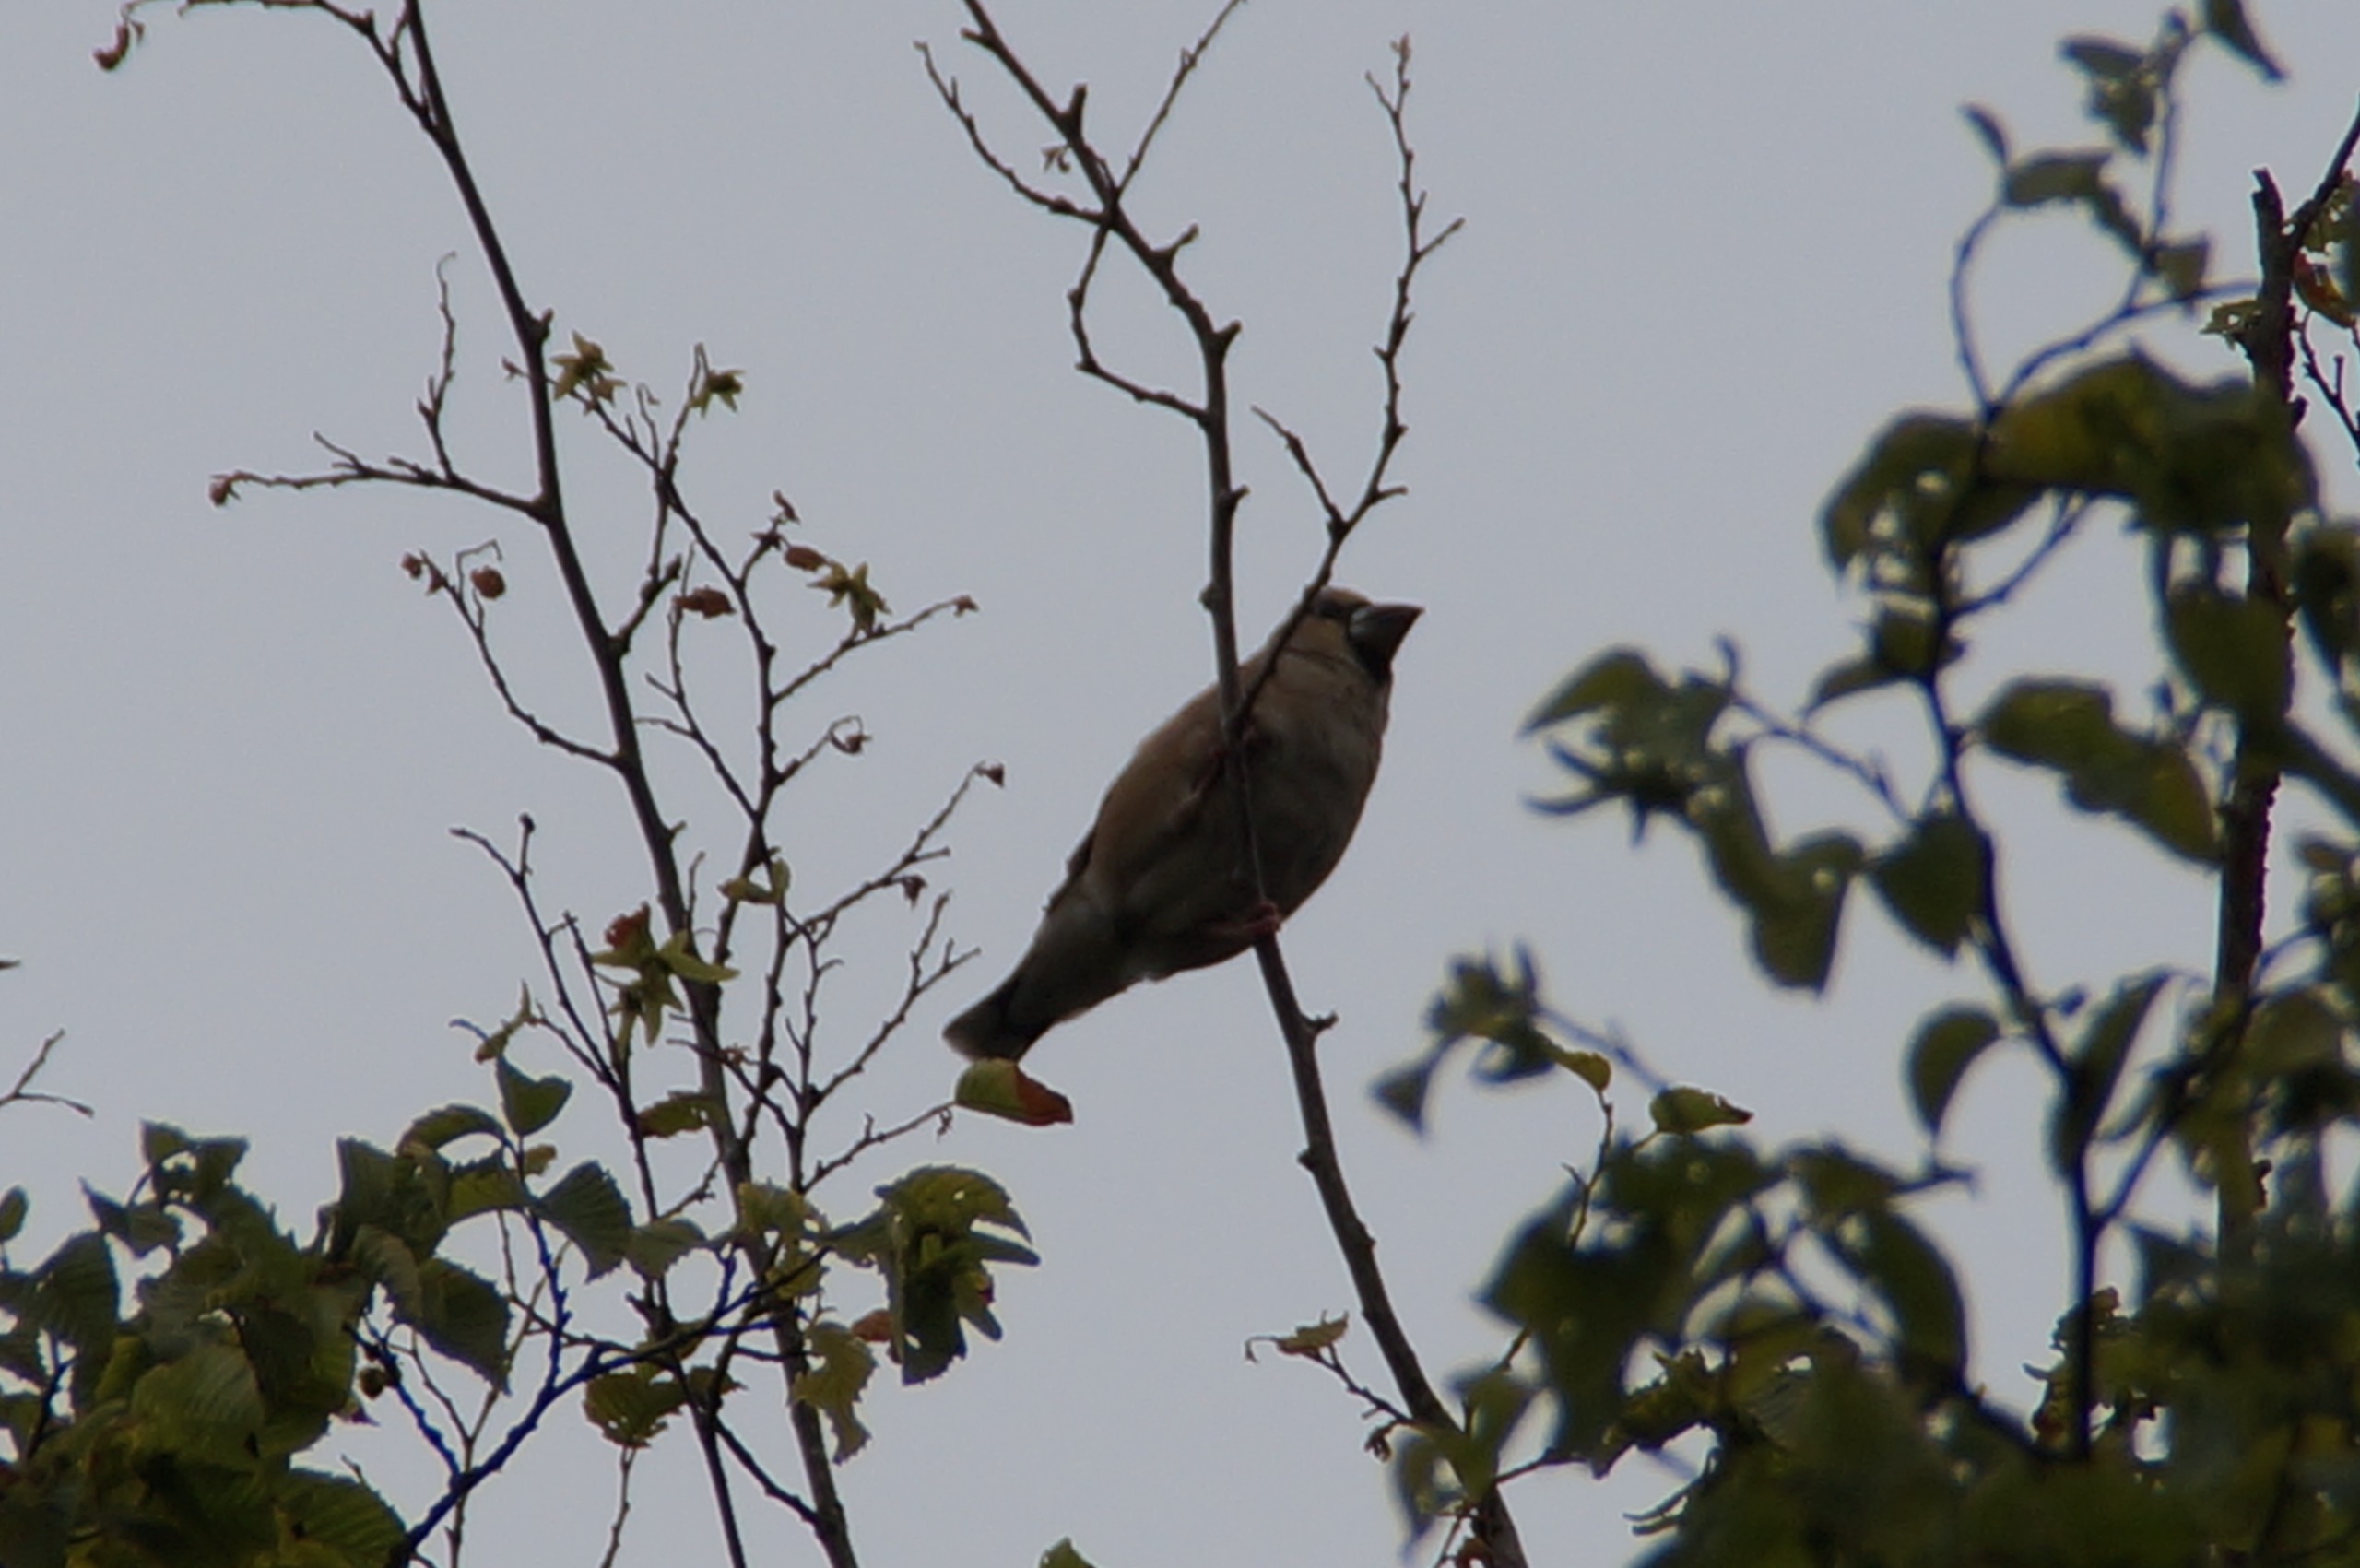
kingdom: Animalia
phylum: Chordata
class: Aves
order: Passeriformes
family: Fringillidae
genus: Coccothraustes
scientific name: Coccothraustes coccothraustes
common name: Kernebider
